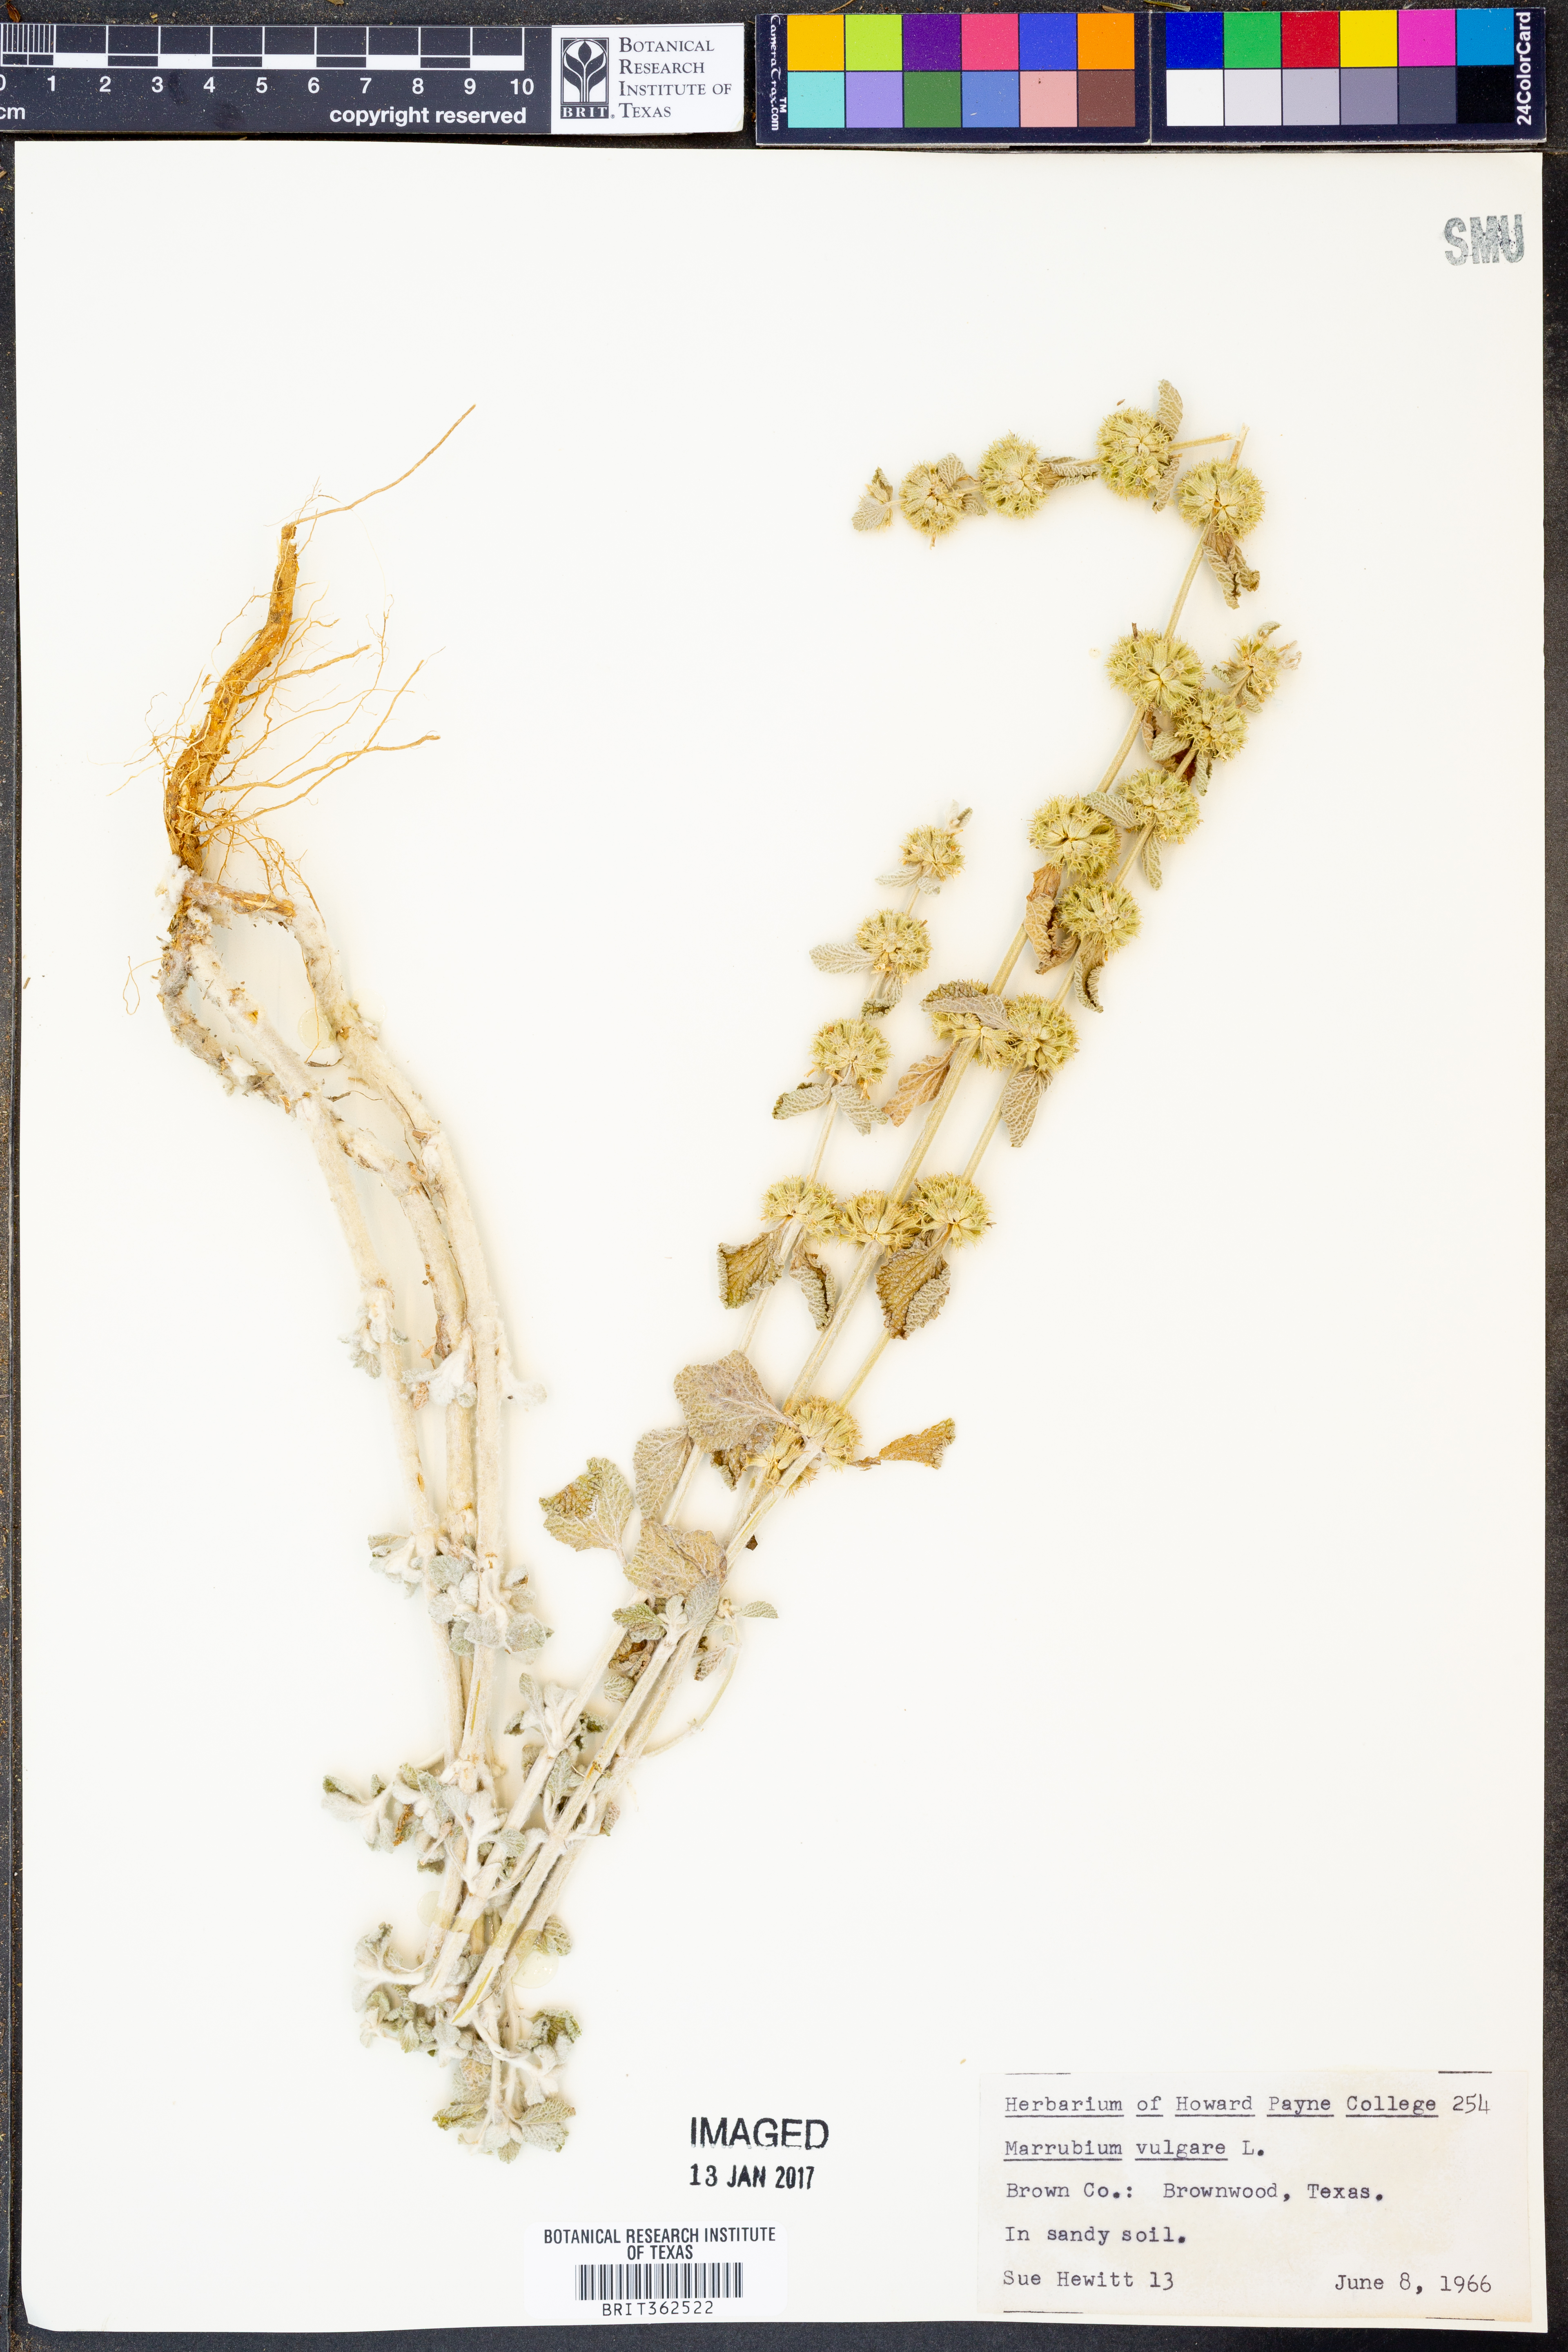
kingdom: Plantae
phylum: Tracheophyta
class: Magnoliopsida
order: Lamiales
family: Lamiaceae
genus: Marrubium
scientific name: Marrubium vulgare
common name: Horehound
